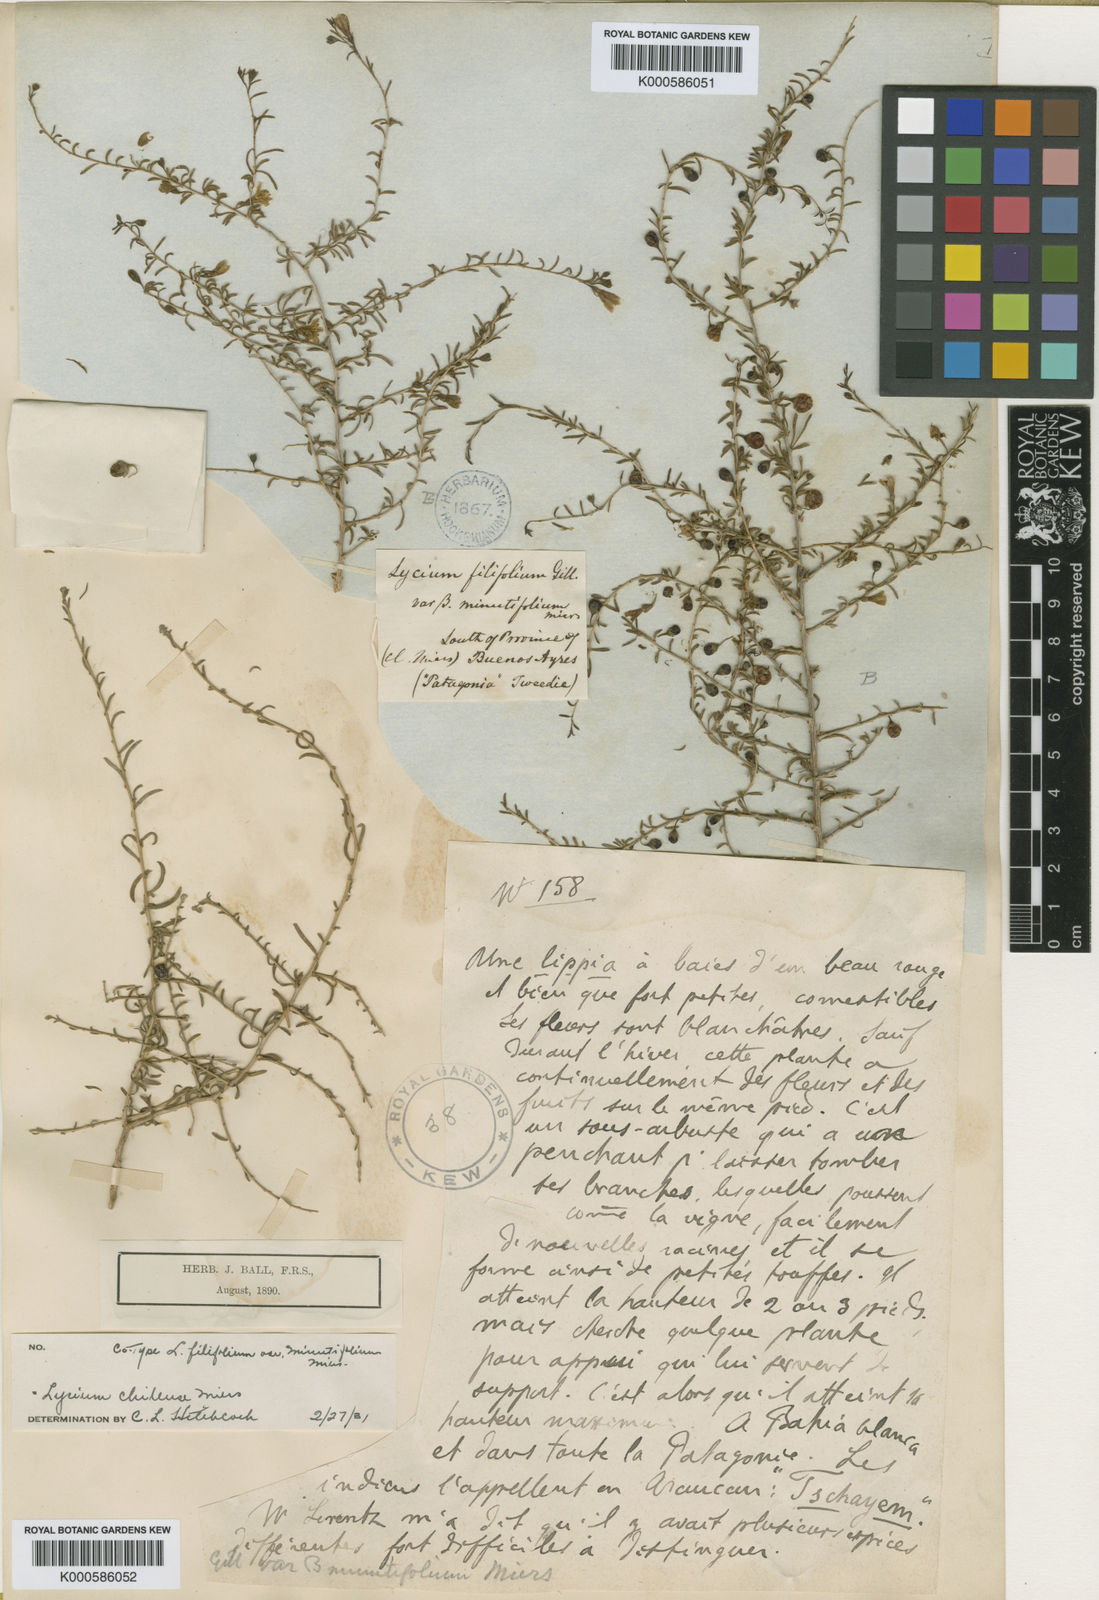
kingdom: Plantae
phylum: Tracheophyta
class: Magnoliopsida
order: Solanales
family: Solanaceae
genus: Lycium
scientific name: Lycium chilense
